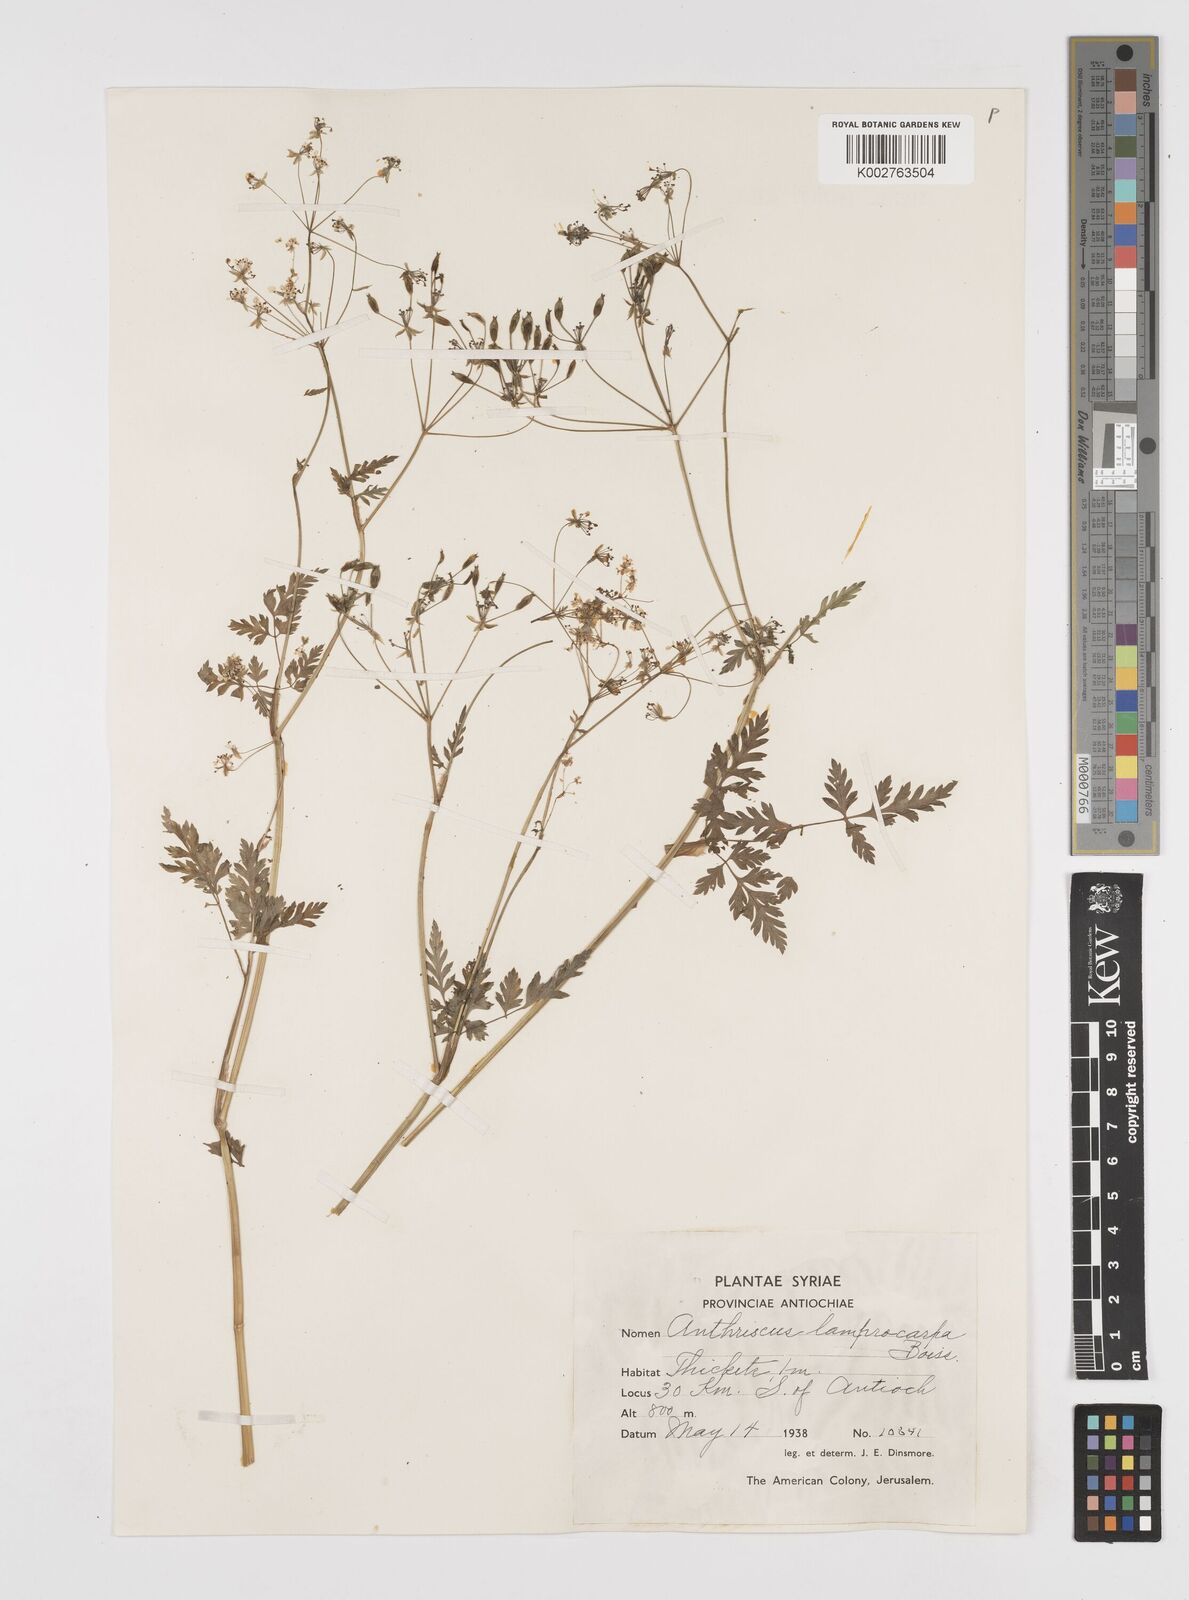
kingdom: Plantae
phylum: Tracheophyta
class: Magnoliopsida
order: Apiales
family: Apiaceae
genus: Anthriscus
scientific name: Anthriscus lamprocarpa
